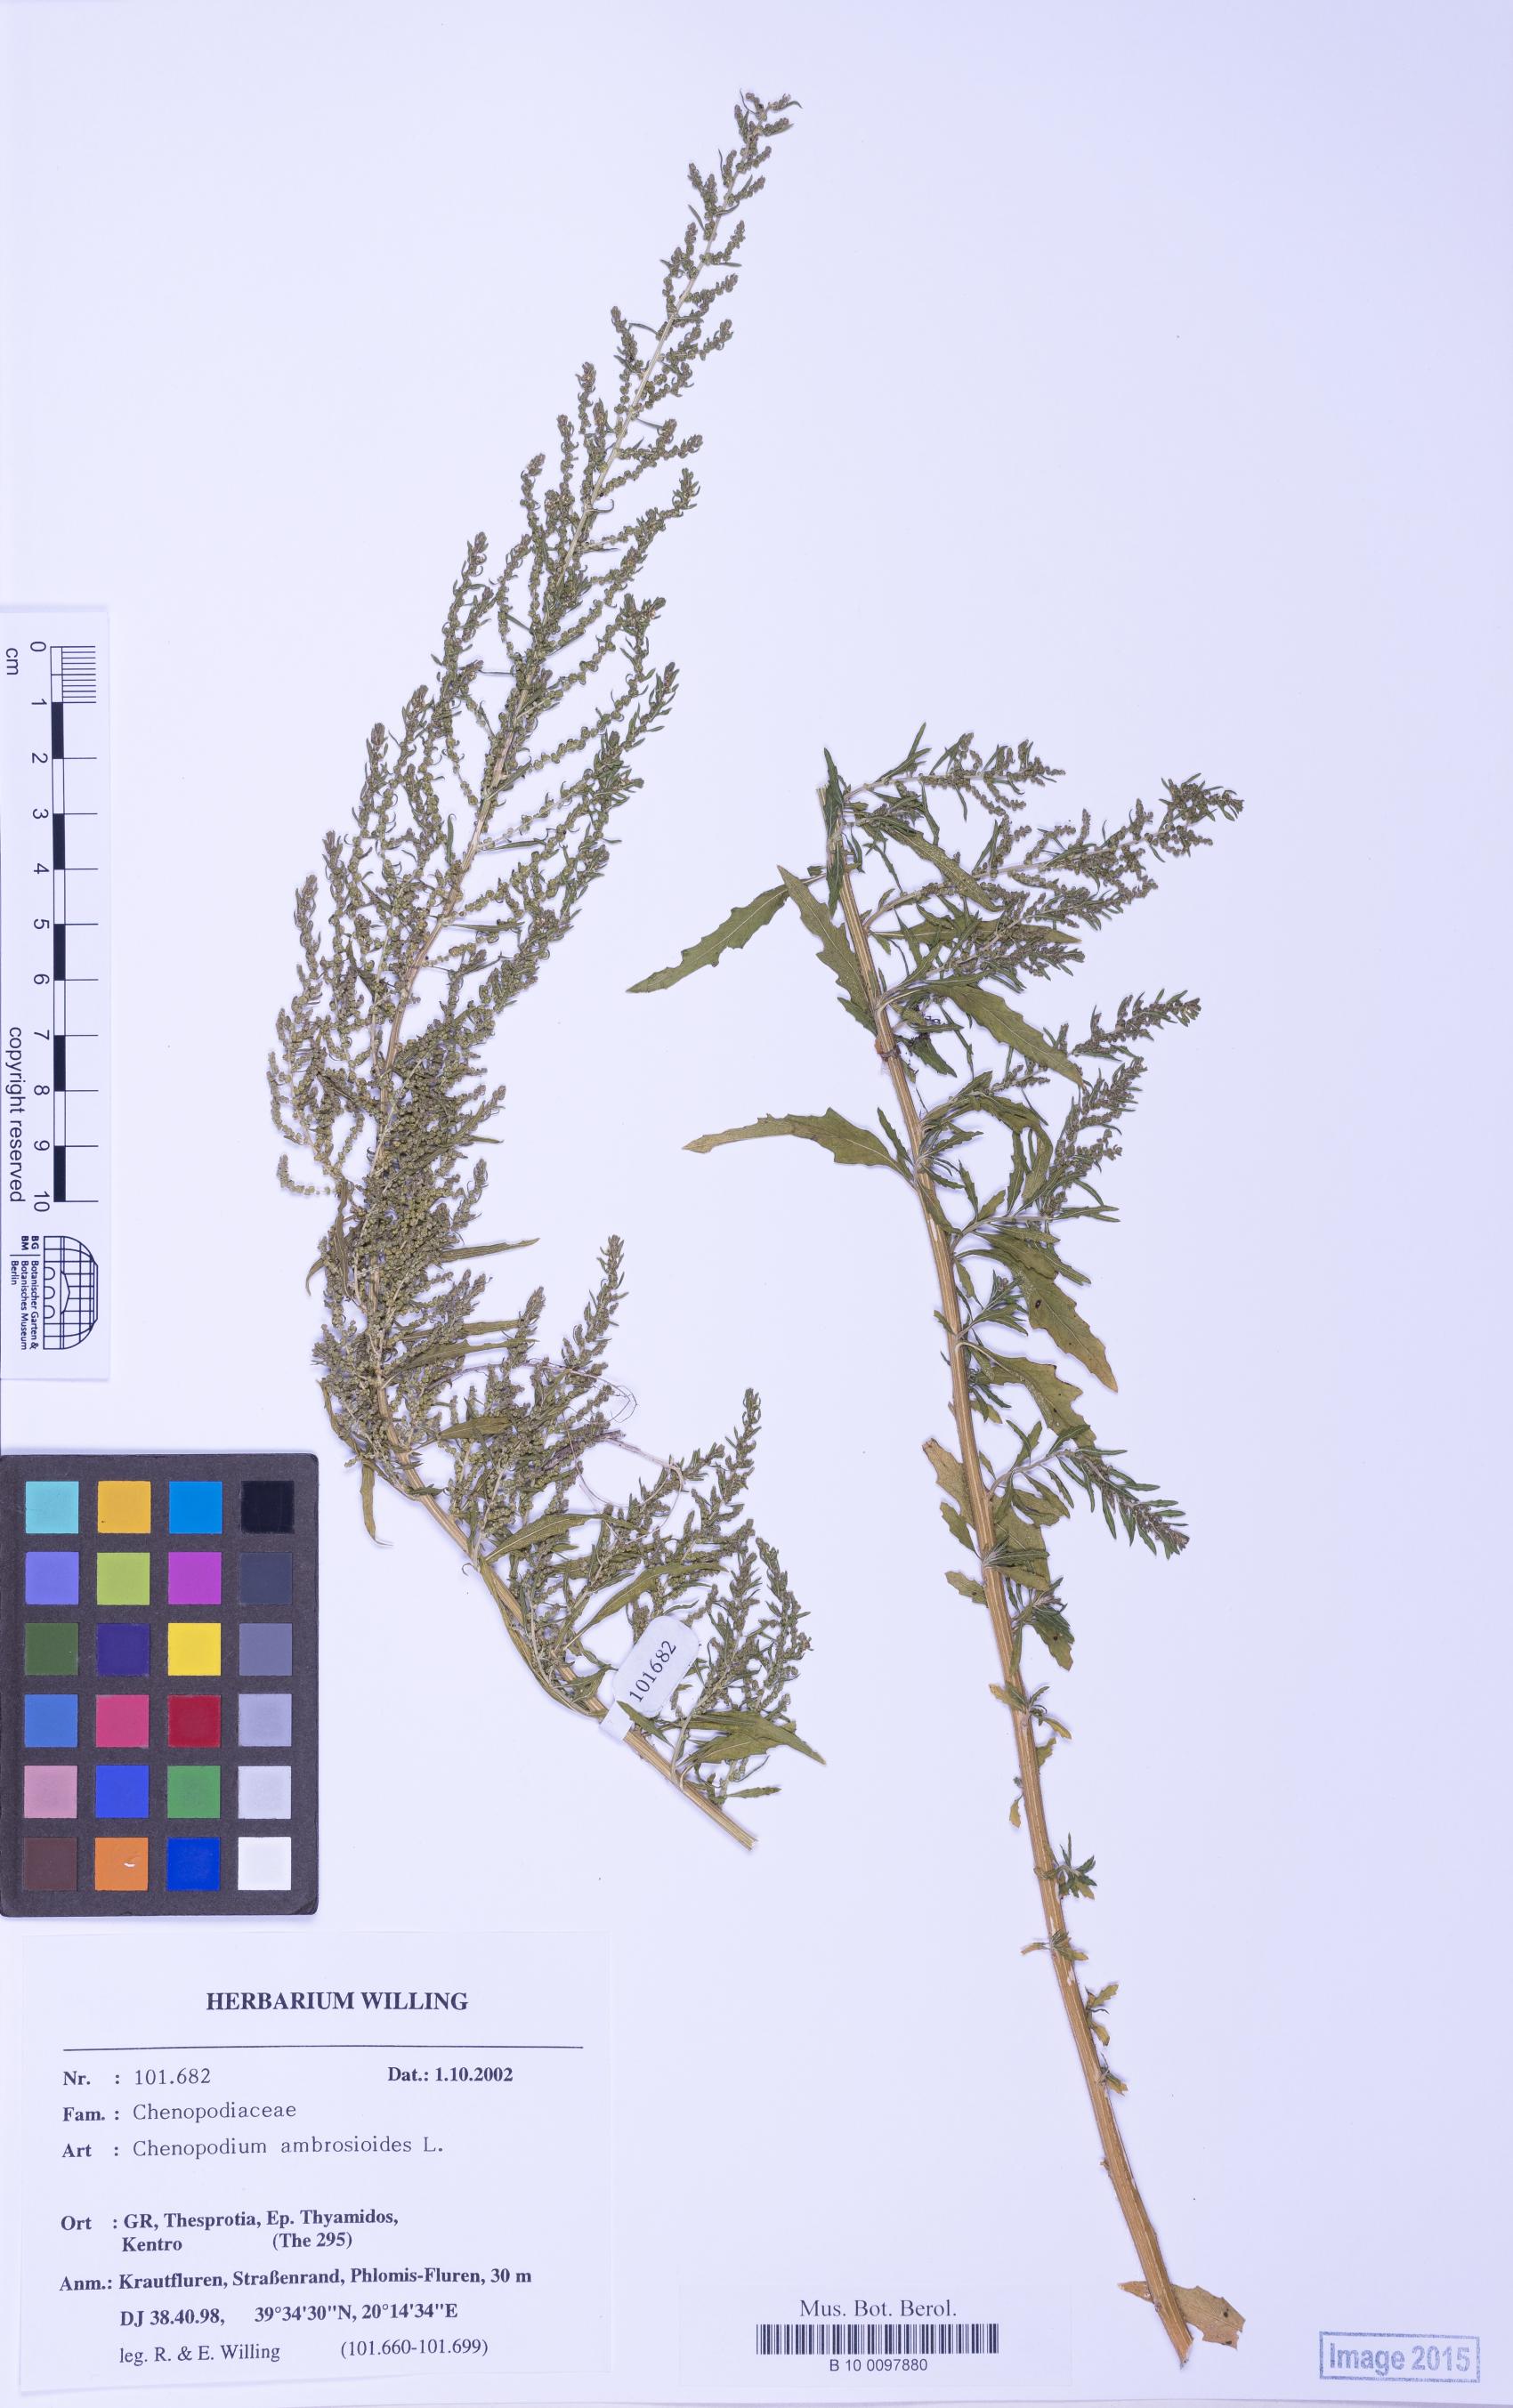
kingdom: Plantae
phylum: Tracheophyta
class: Magnoliopsida
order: Caryophyllales
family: Amaranthaceae
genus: Dysphania
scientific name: Dysphania ambrosioides
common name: Wormseed
